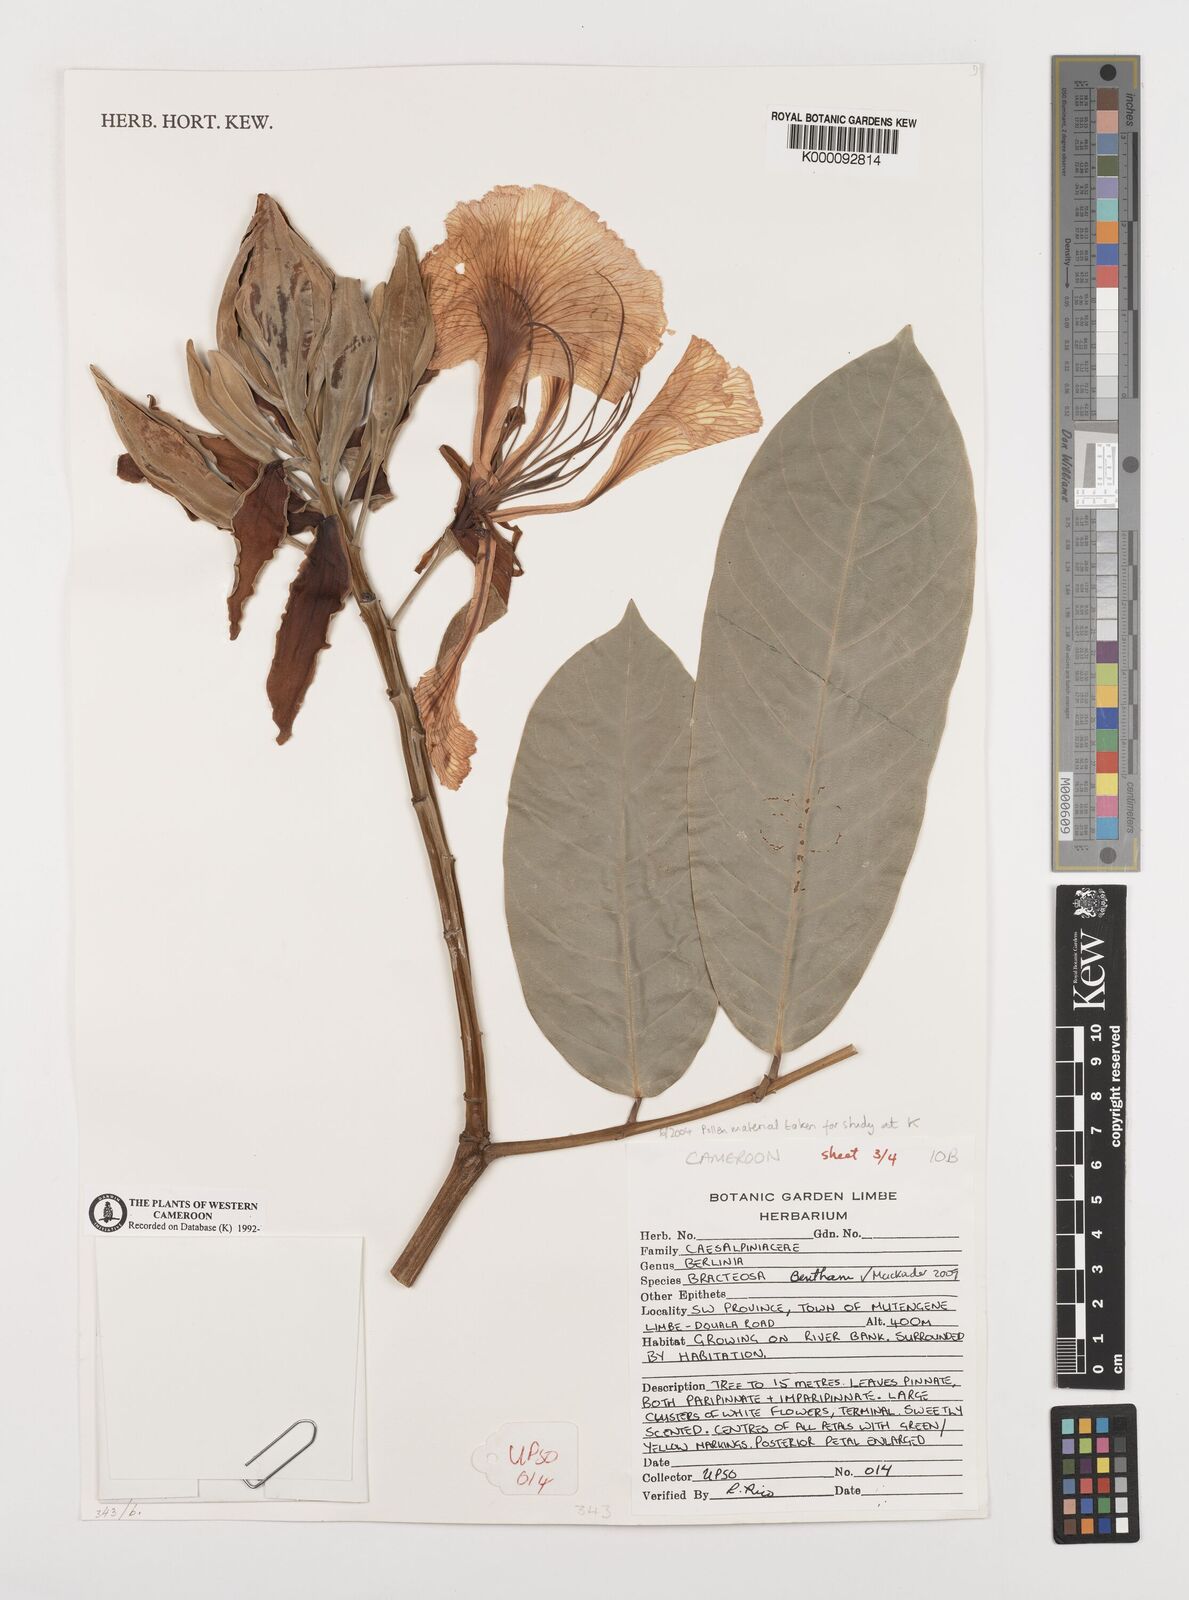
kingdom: Plantae
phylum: Tracheophyta
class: Magnoliopsida
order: Fabales
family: Fabaceae
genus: Berlinia
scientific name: Berlinia bracteosa
